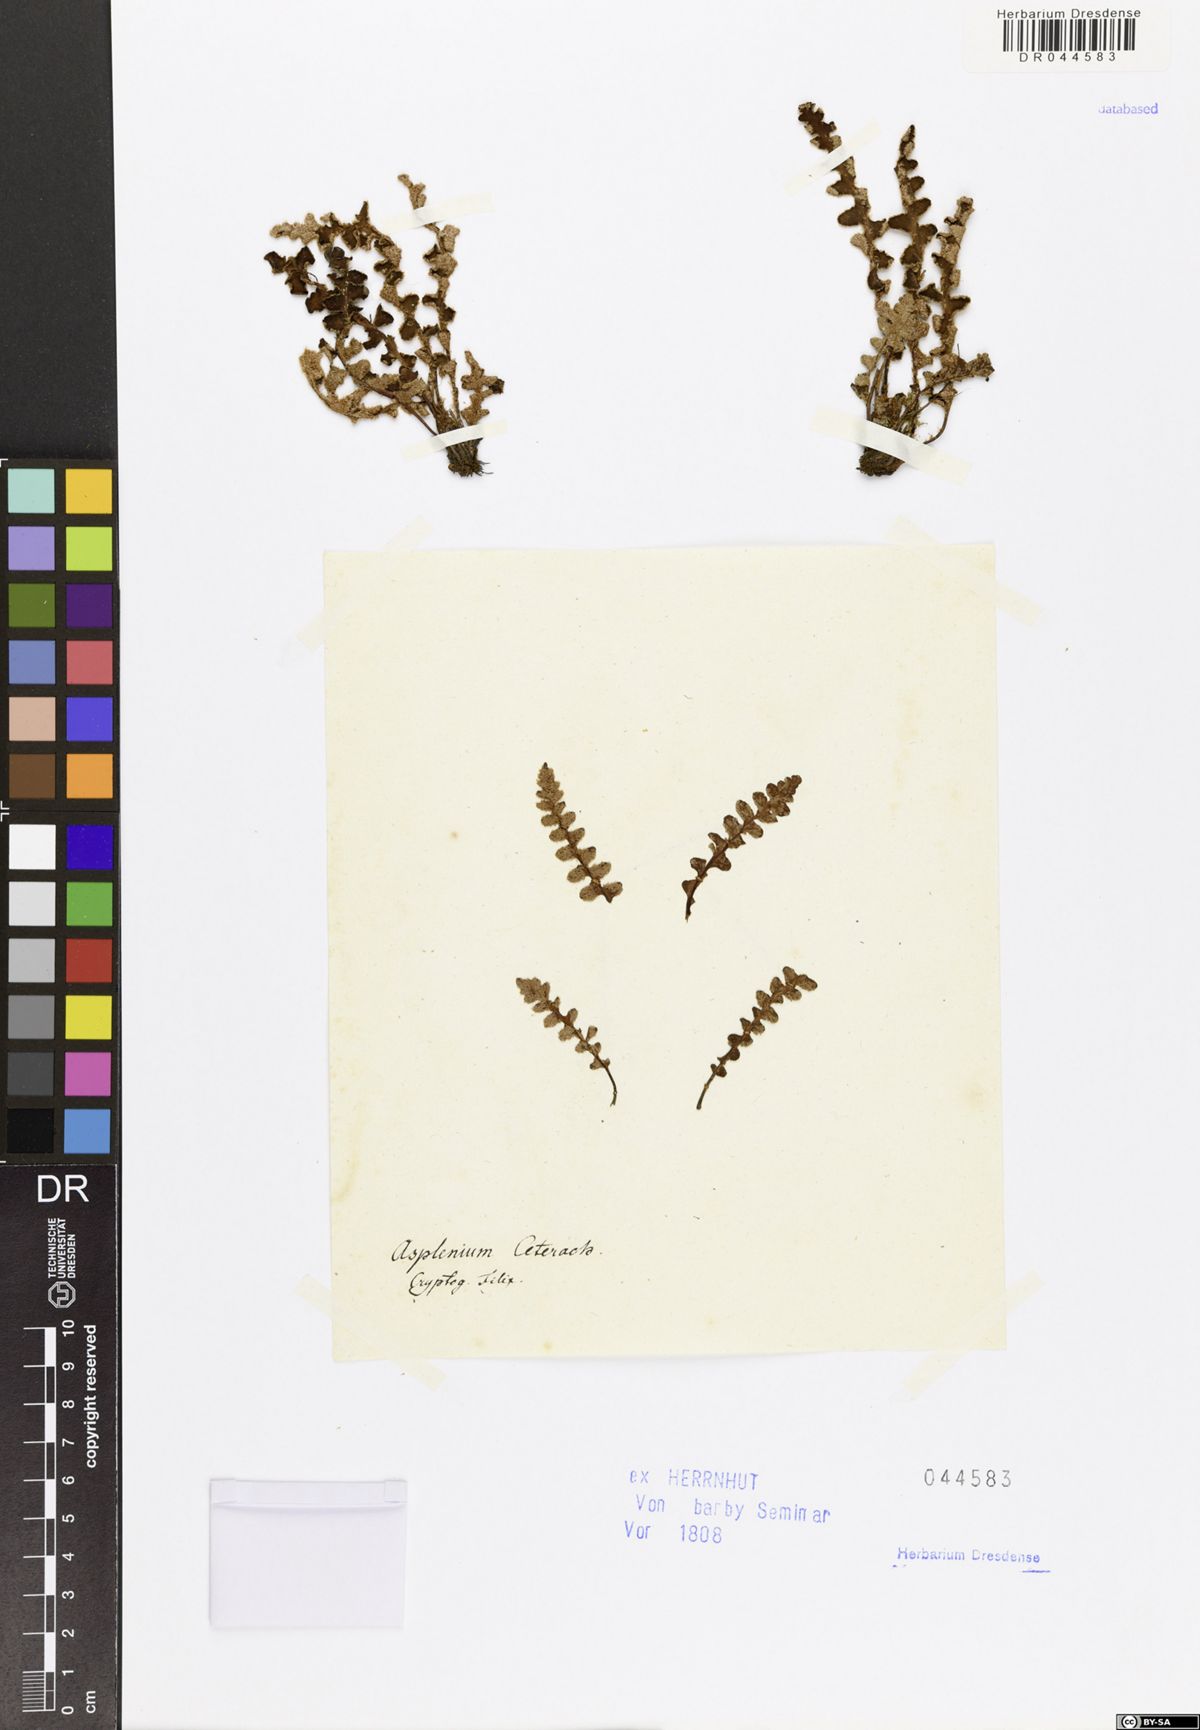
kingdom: Plantae
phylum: Tracheophyta
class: Polypodiopsida
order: Polypodiales
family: Aspleniaceae
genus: Asplenium
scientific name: Asplenium ceterach
